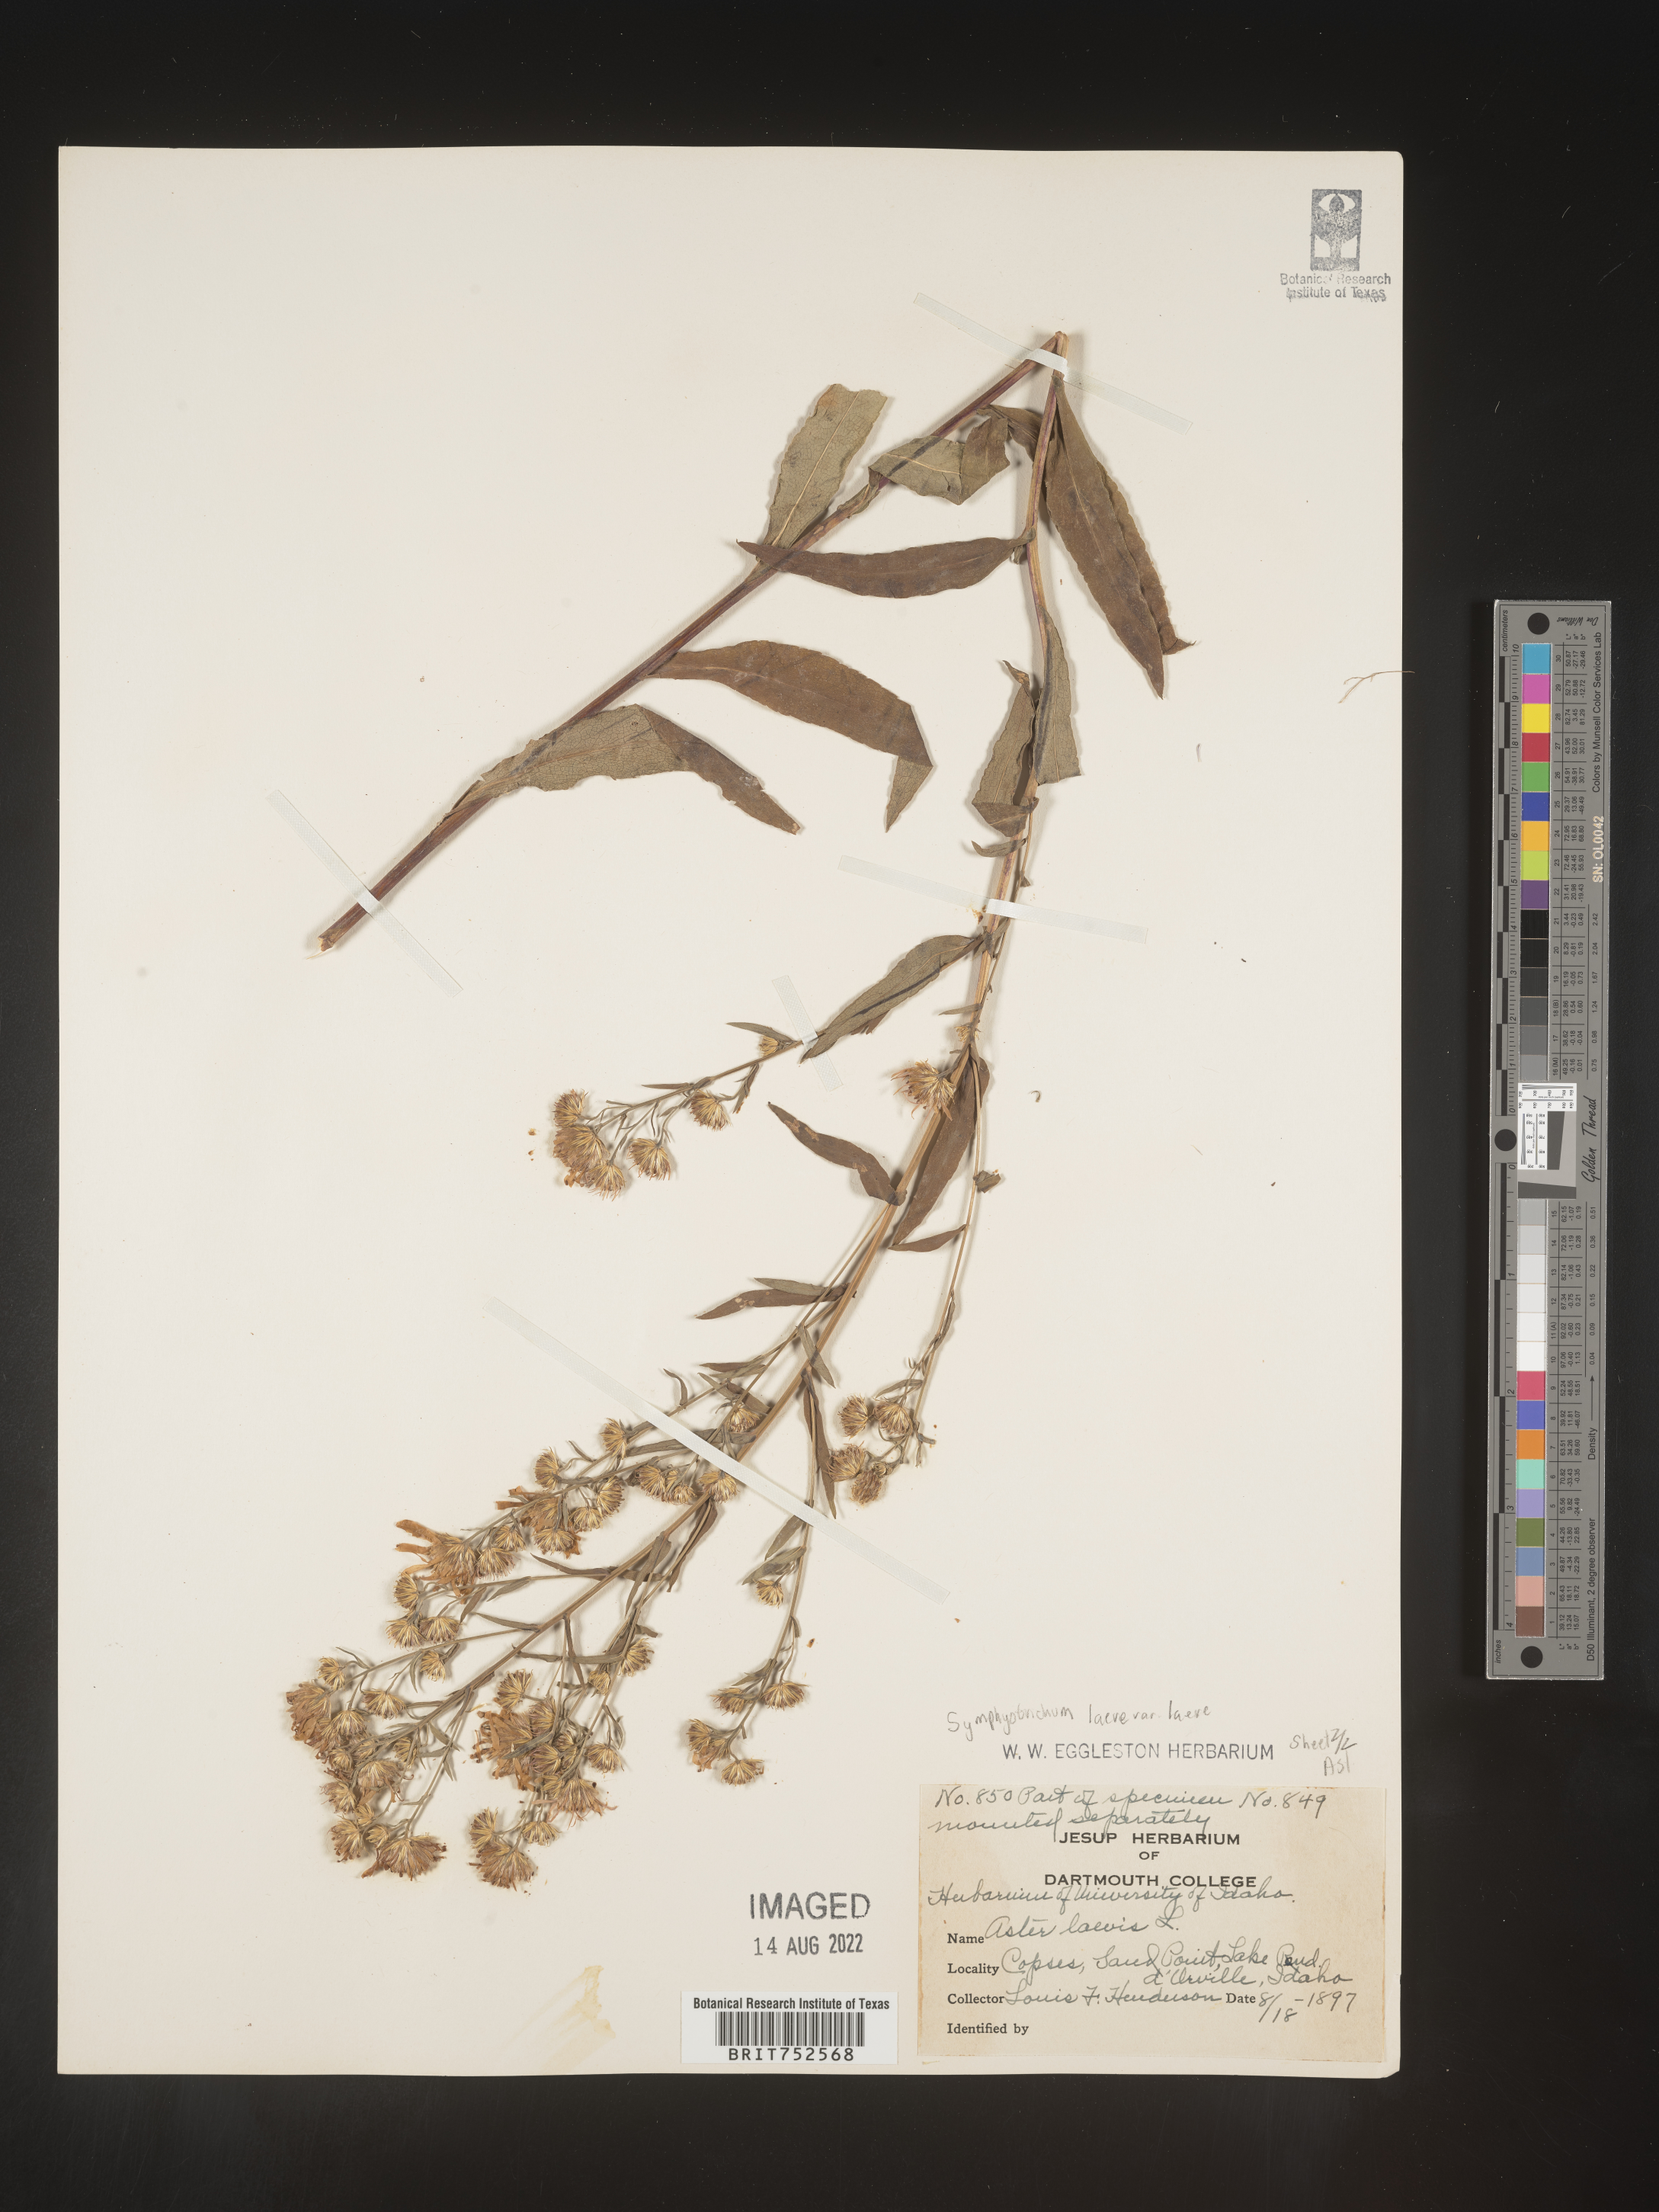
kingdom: Plantae
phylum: Tracheophyta
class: Magnoliopsida
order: Asterales
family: Asteraceae
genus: Symphyotrichum
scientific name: Symphyotrichum laeve
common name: Glaucous aster
